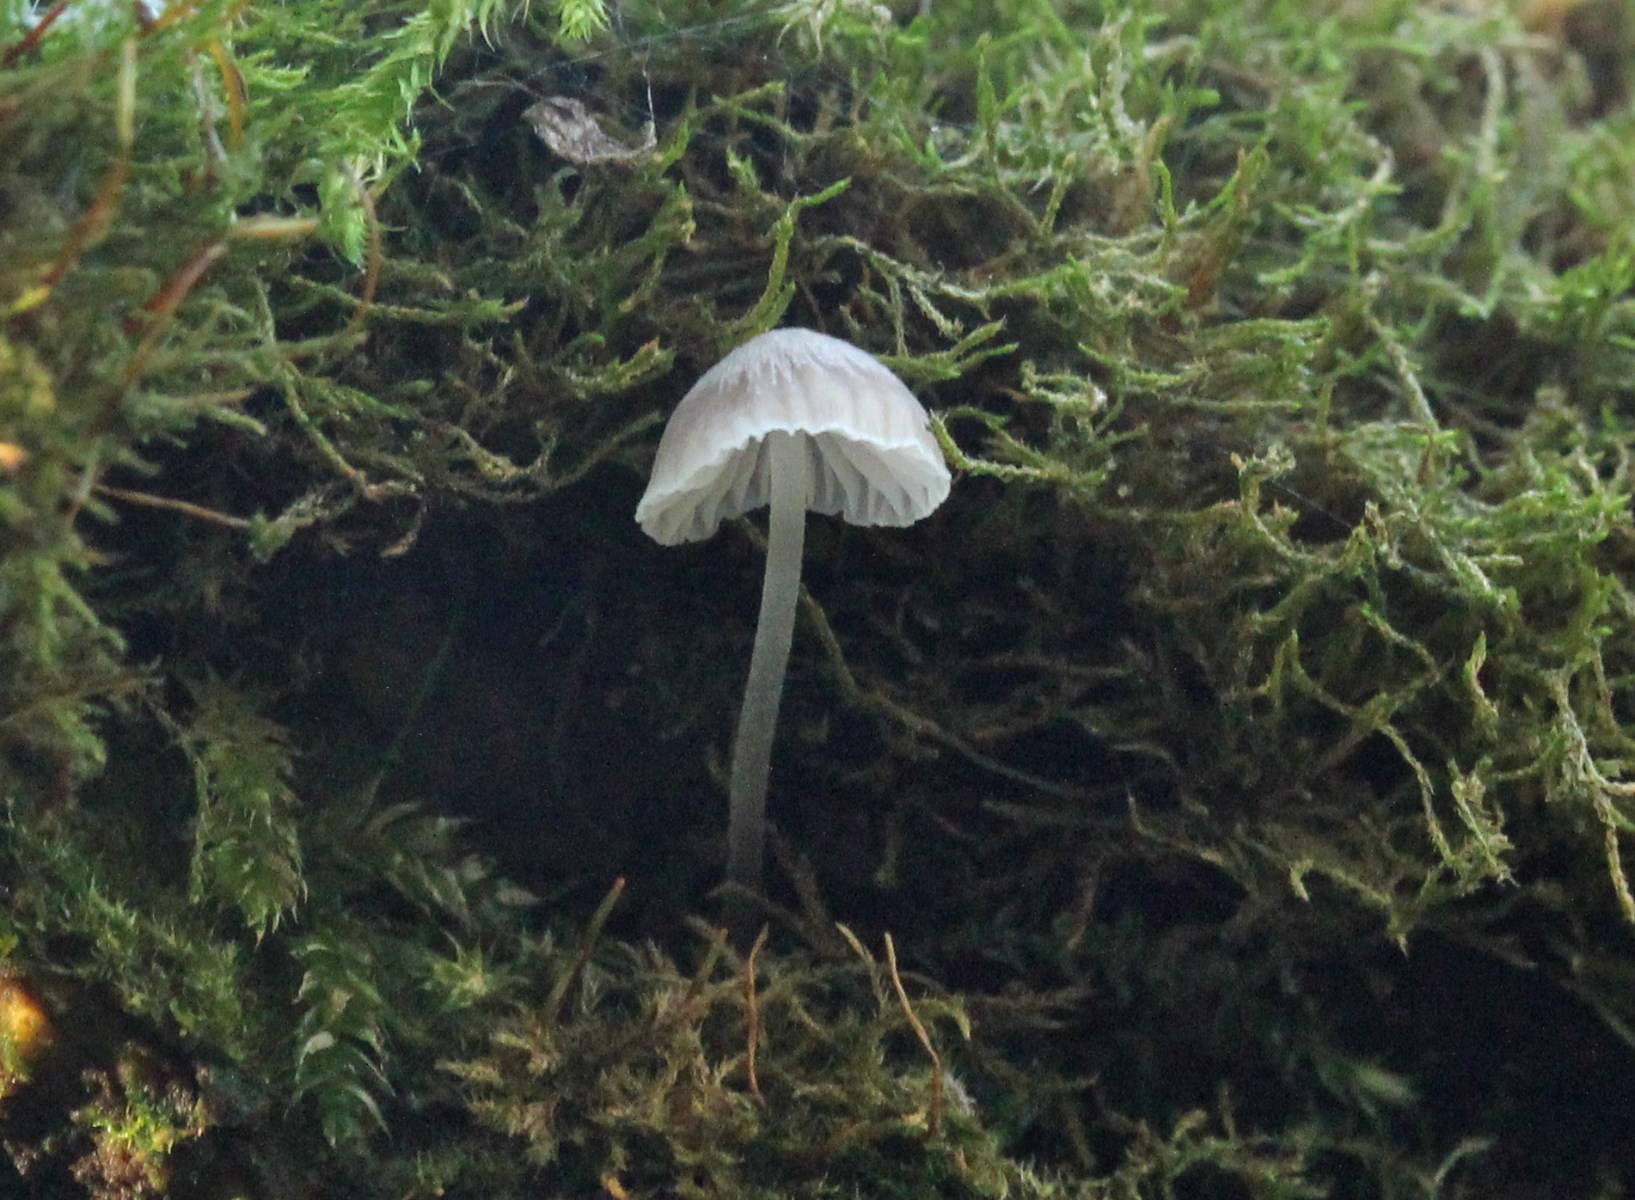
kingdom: Fungi
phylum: Basidiomycota
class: Agaricomycetes
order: Agaricales
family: Porotheleaceae
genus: Phloeomana
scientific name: Phloeomana hiemalis
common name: sen huesvamp
